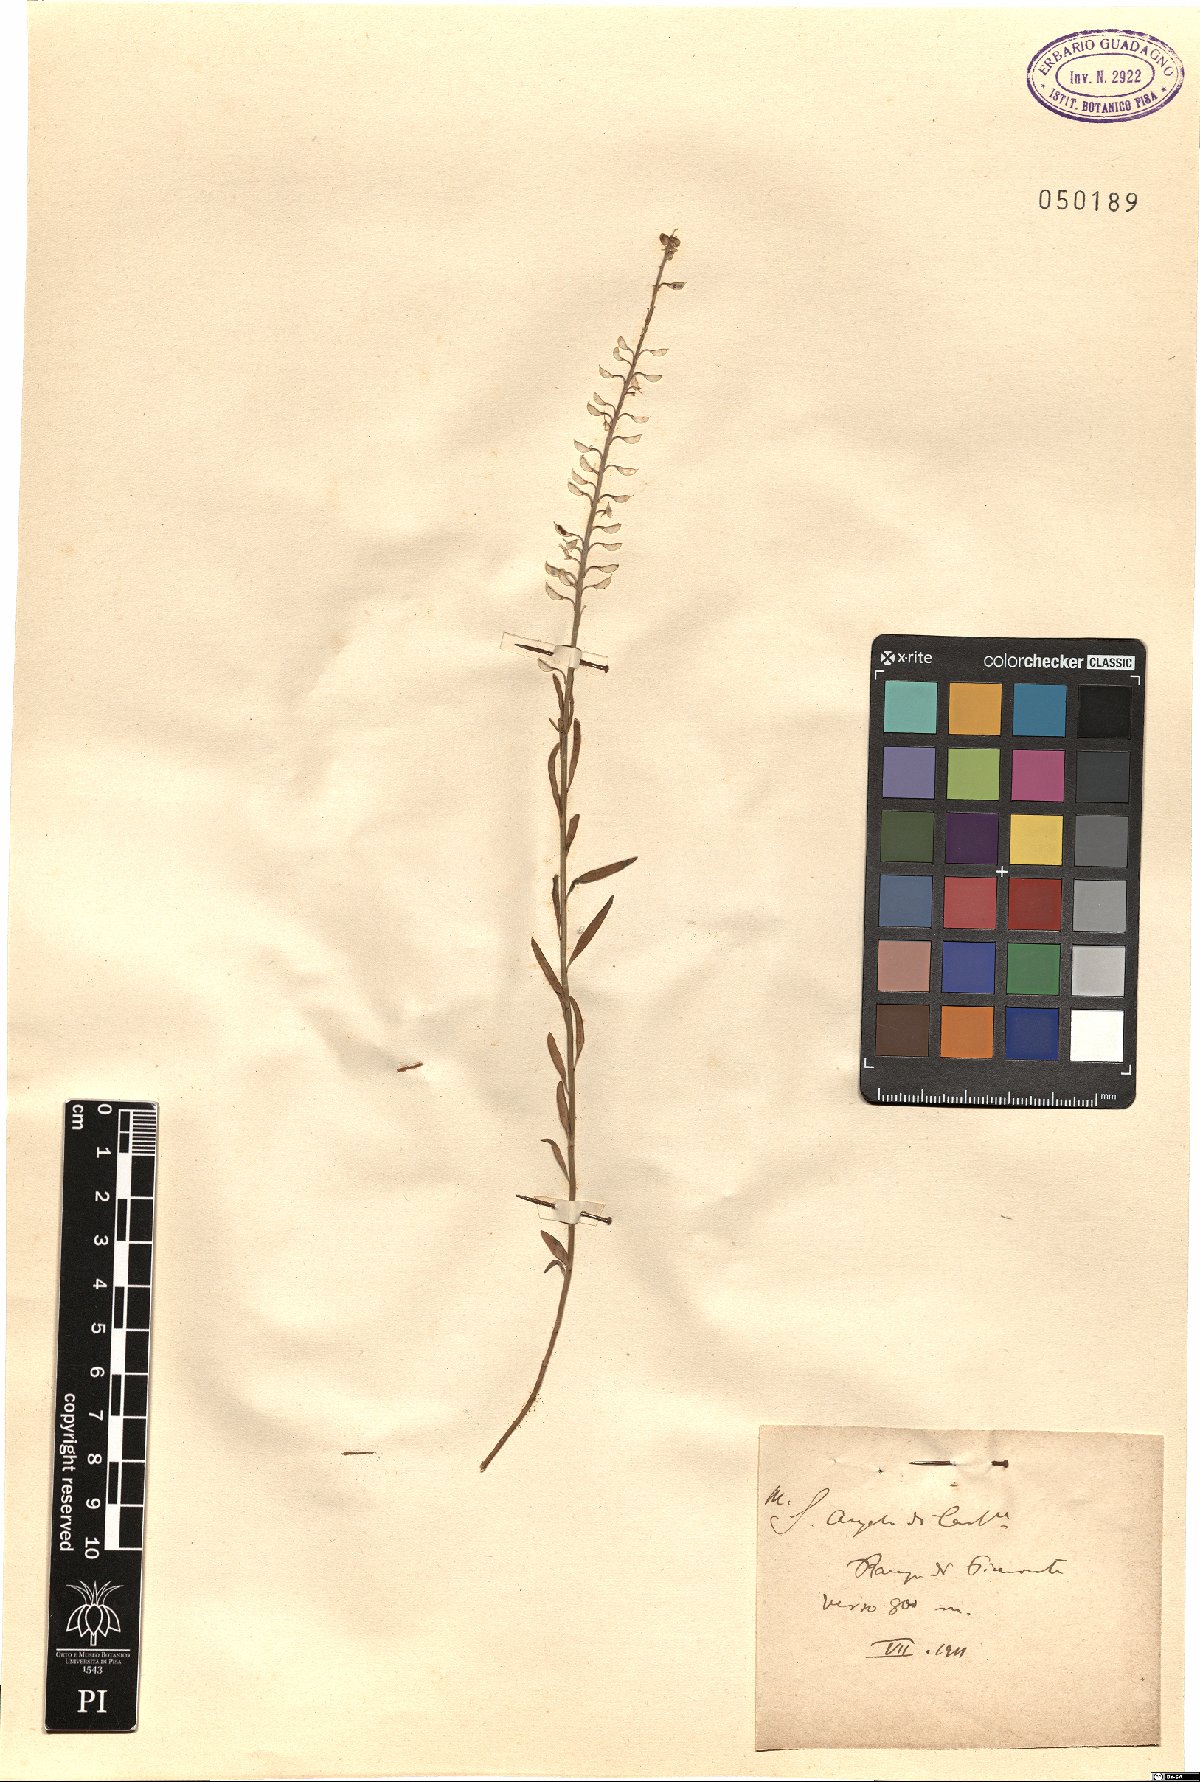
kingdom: Plantae
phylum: Tracheophyta
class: Magnoliopsida
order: Brassicales
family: Brassicaceae
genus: Aethionema
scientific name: Aethionema
